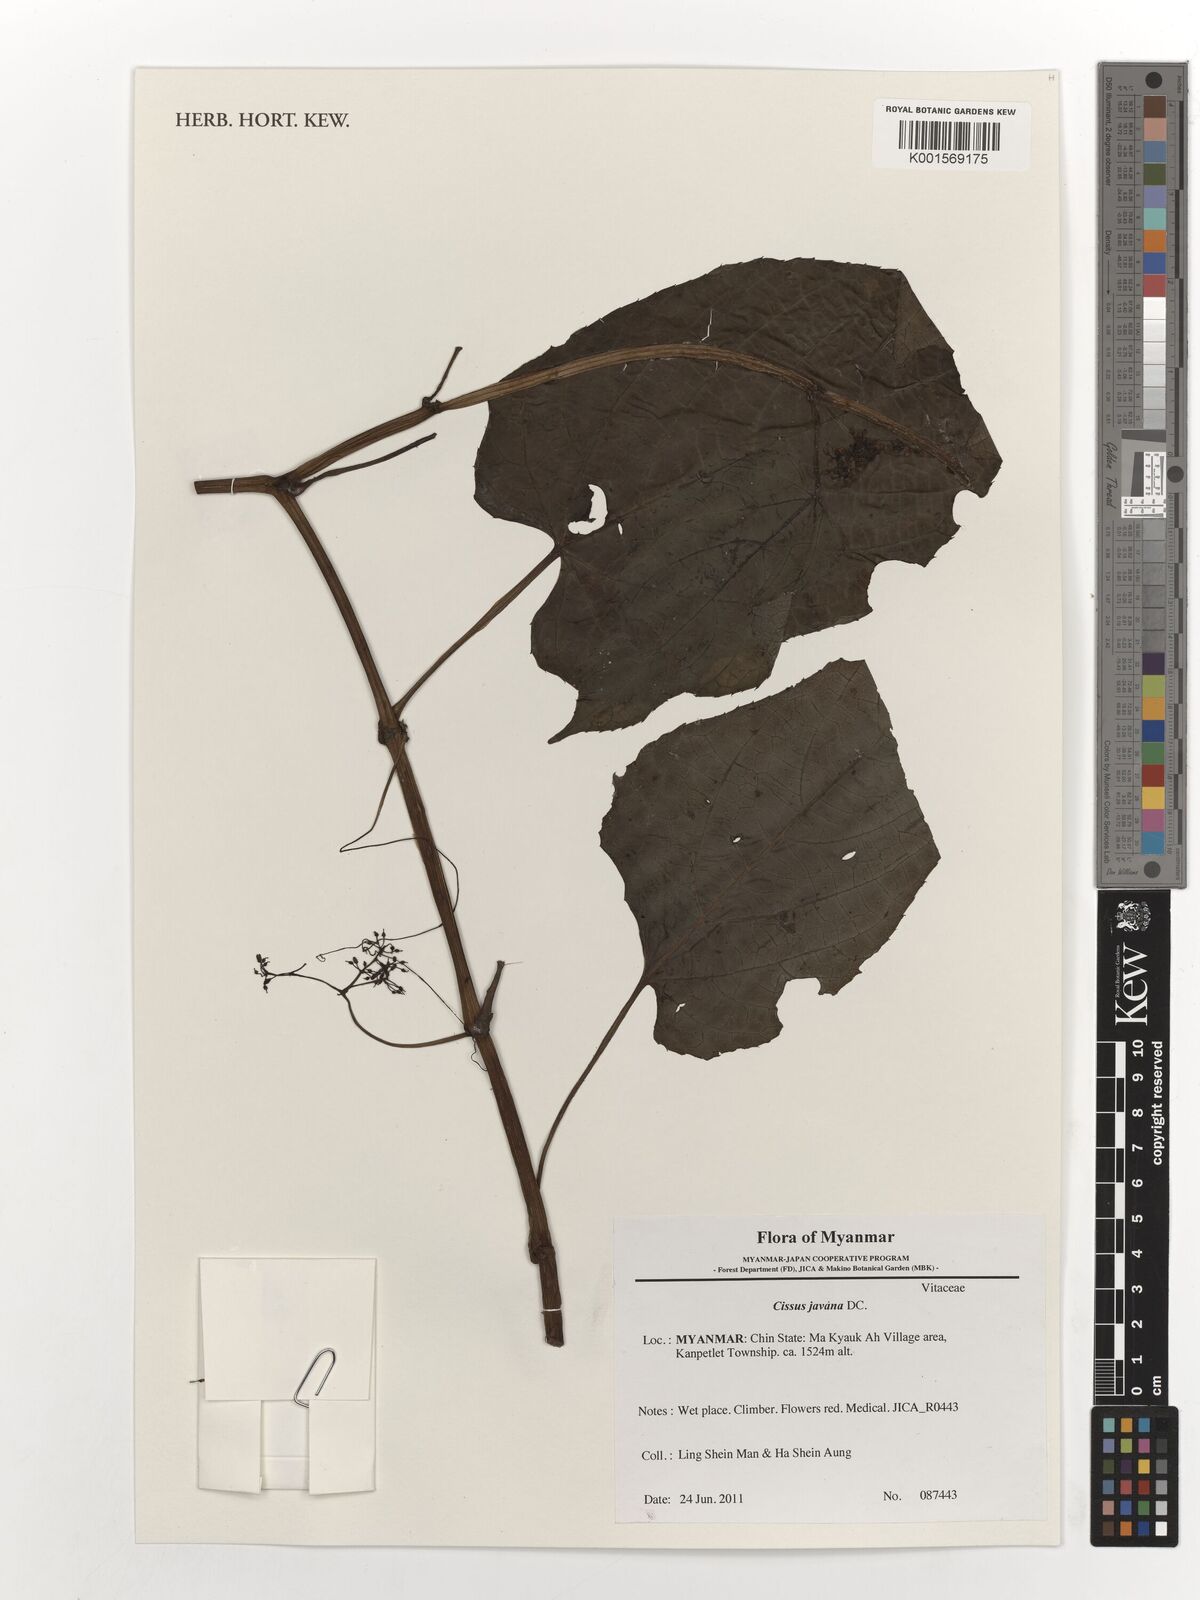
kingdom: Plantae
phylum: Tracheophyta
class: Magnoliopsida
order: Vitales
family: Vitaceae
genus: Cissus
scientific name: Cissus discolor
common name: Climbing-begonia
